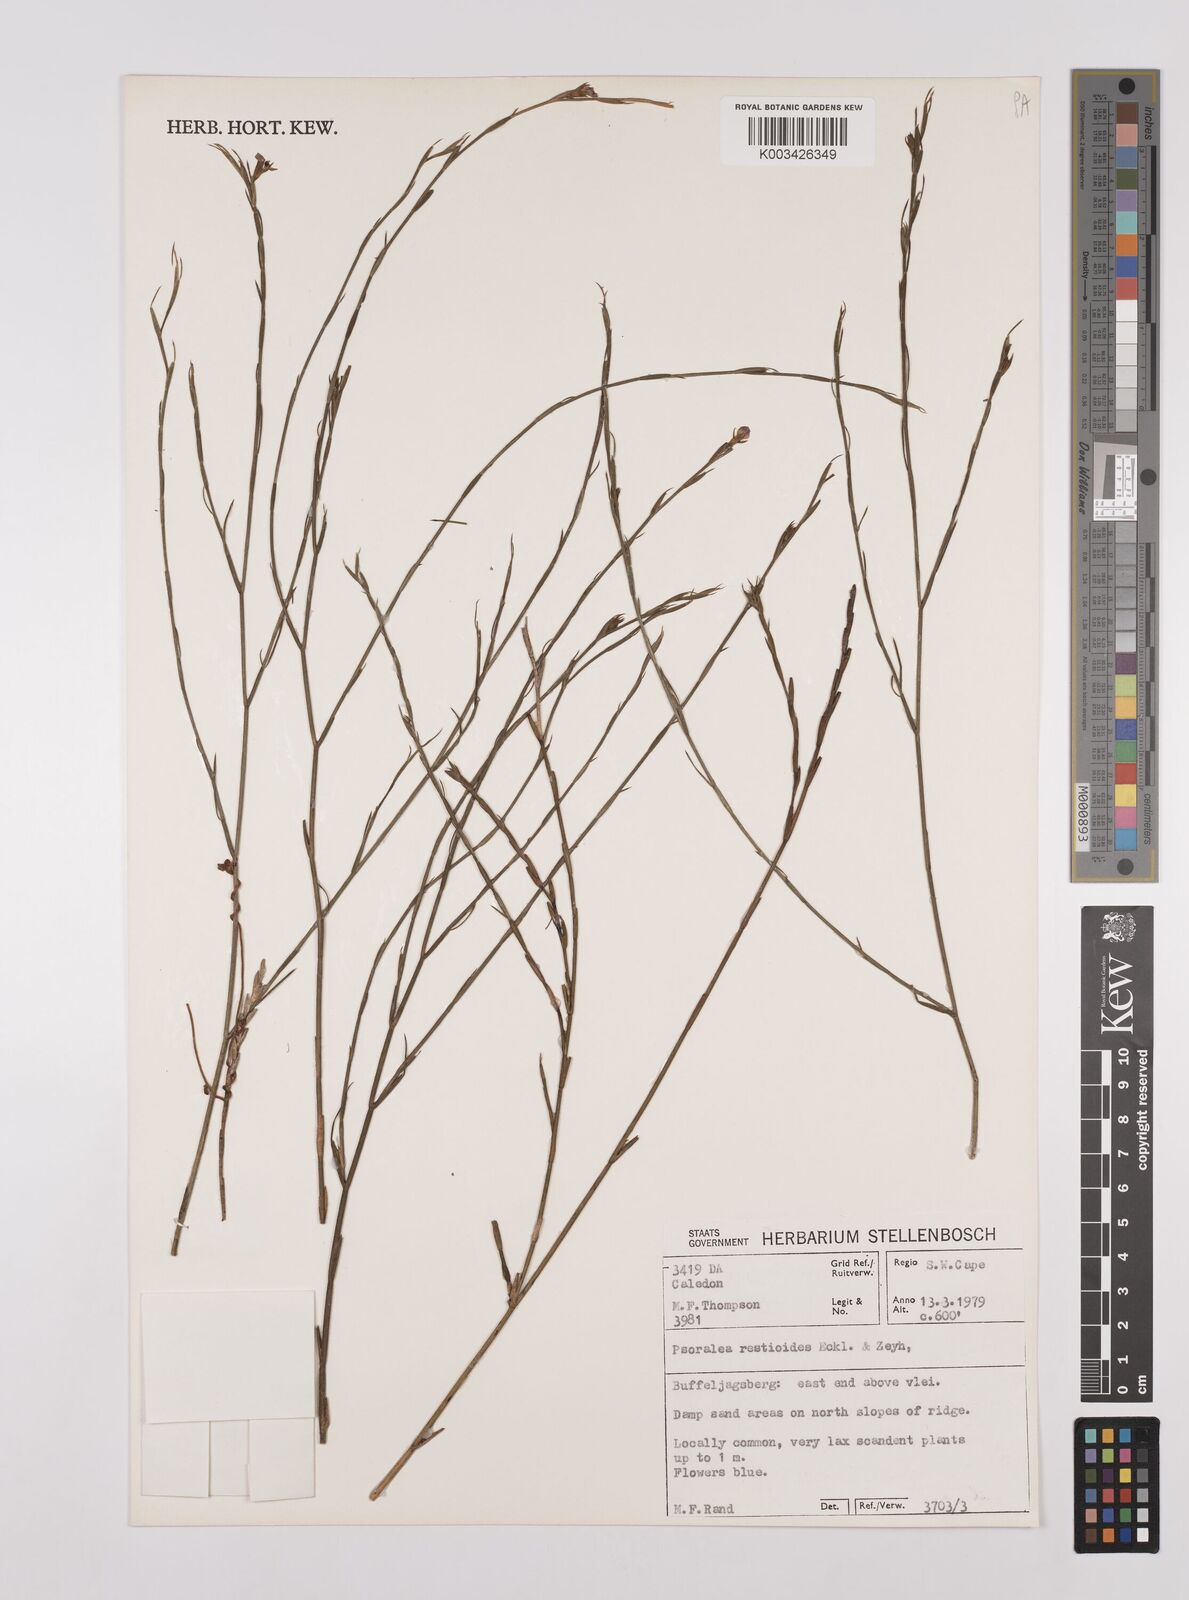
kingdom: Plantae
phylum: Tracheophyta
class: Magnoliopsida
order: Fabales
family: Fabaceae
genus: Psoralea
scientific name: Psoralea restioides
